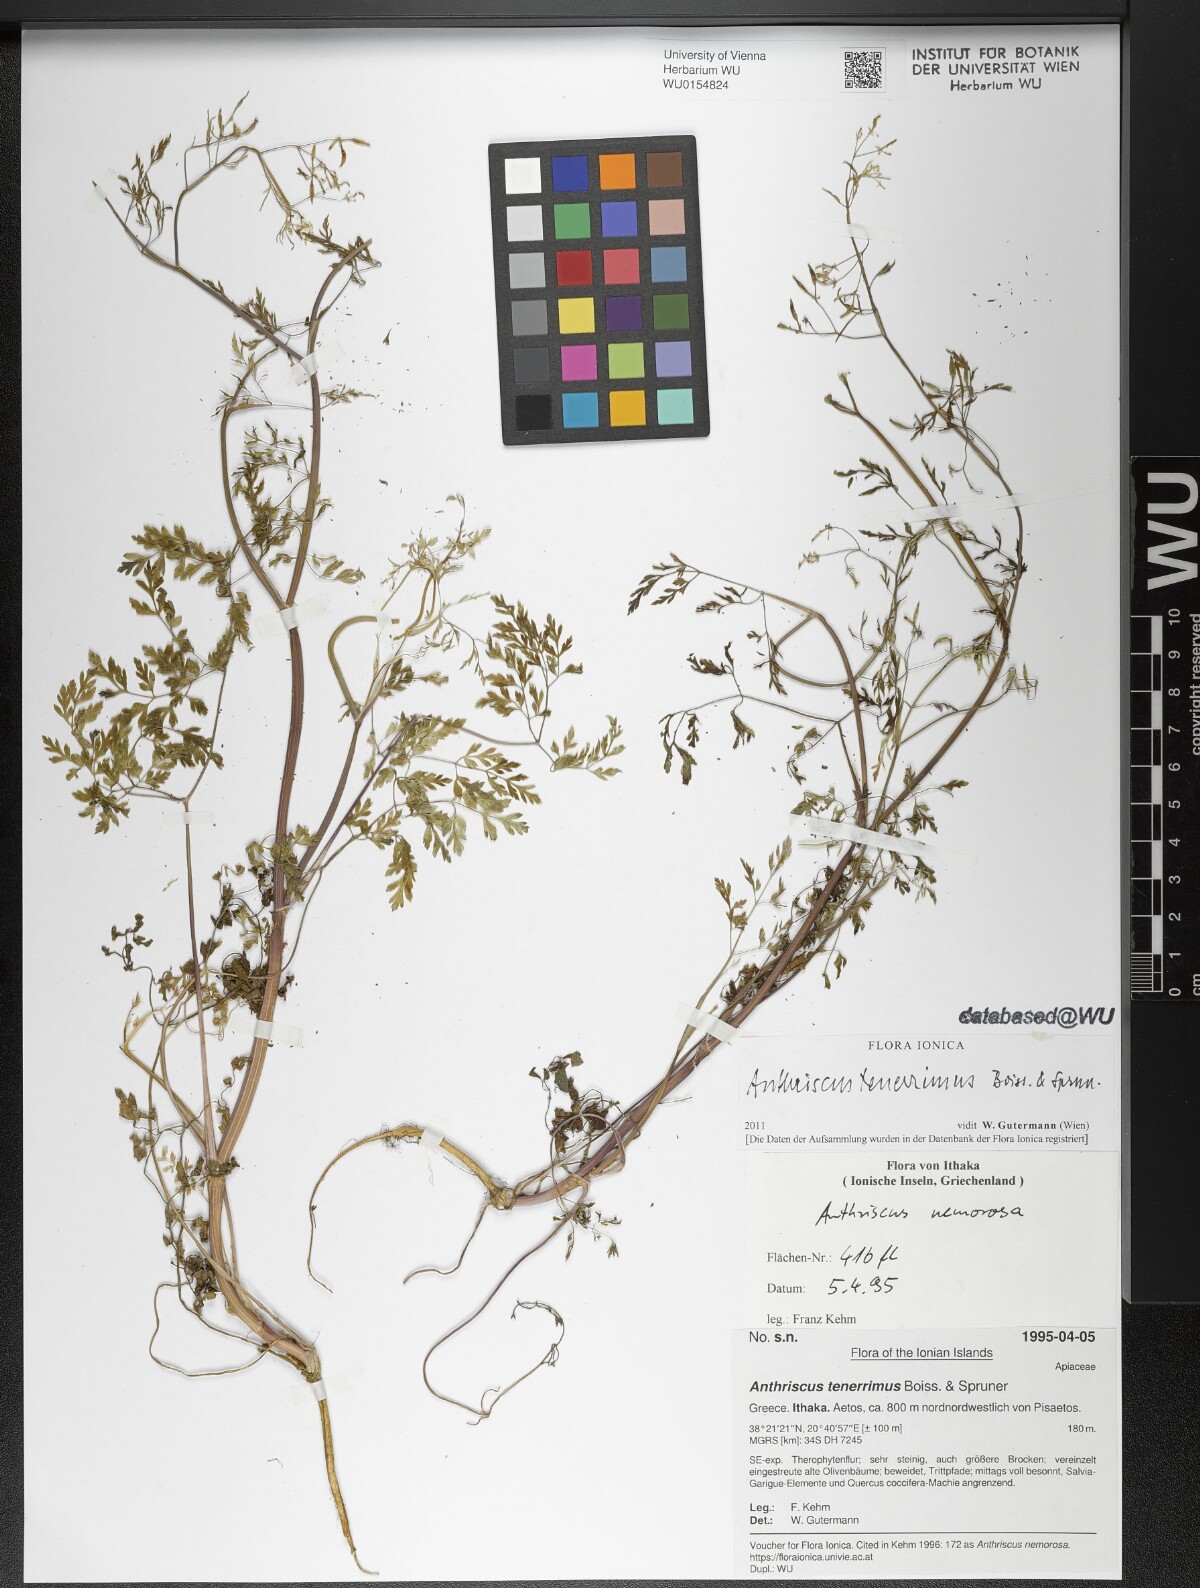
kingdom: Plantae
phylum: Tracheophyta
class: Magnoliopsida
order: Apiales
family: Apiaceae
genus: Anthriscus
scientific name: Anthriscus tenerrima
